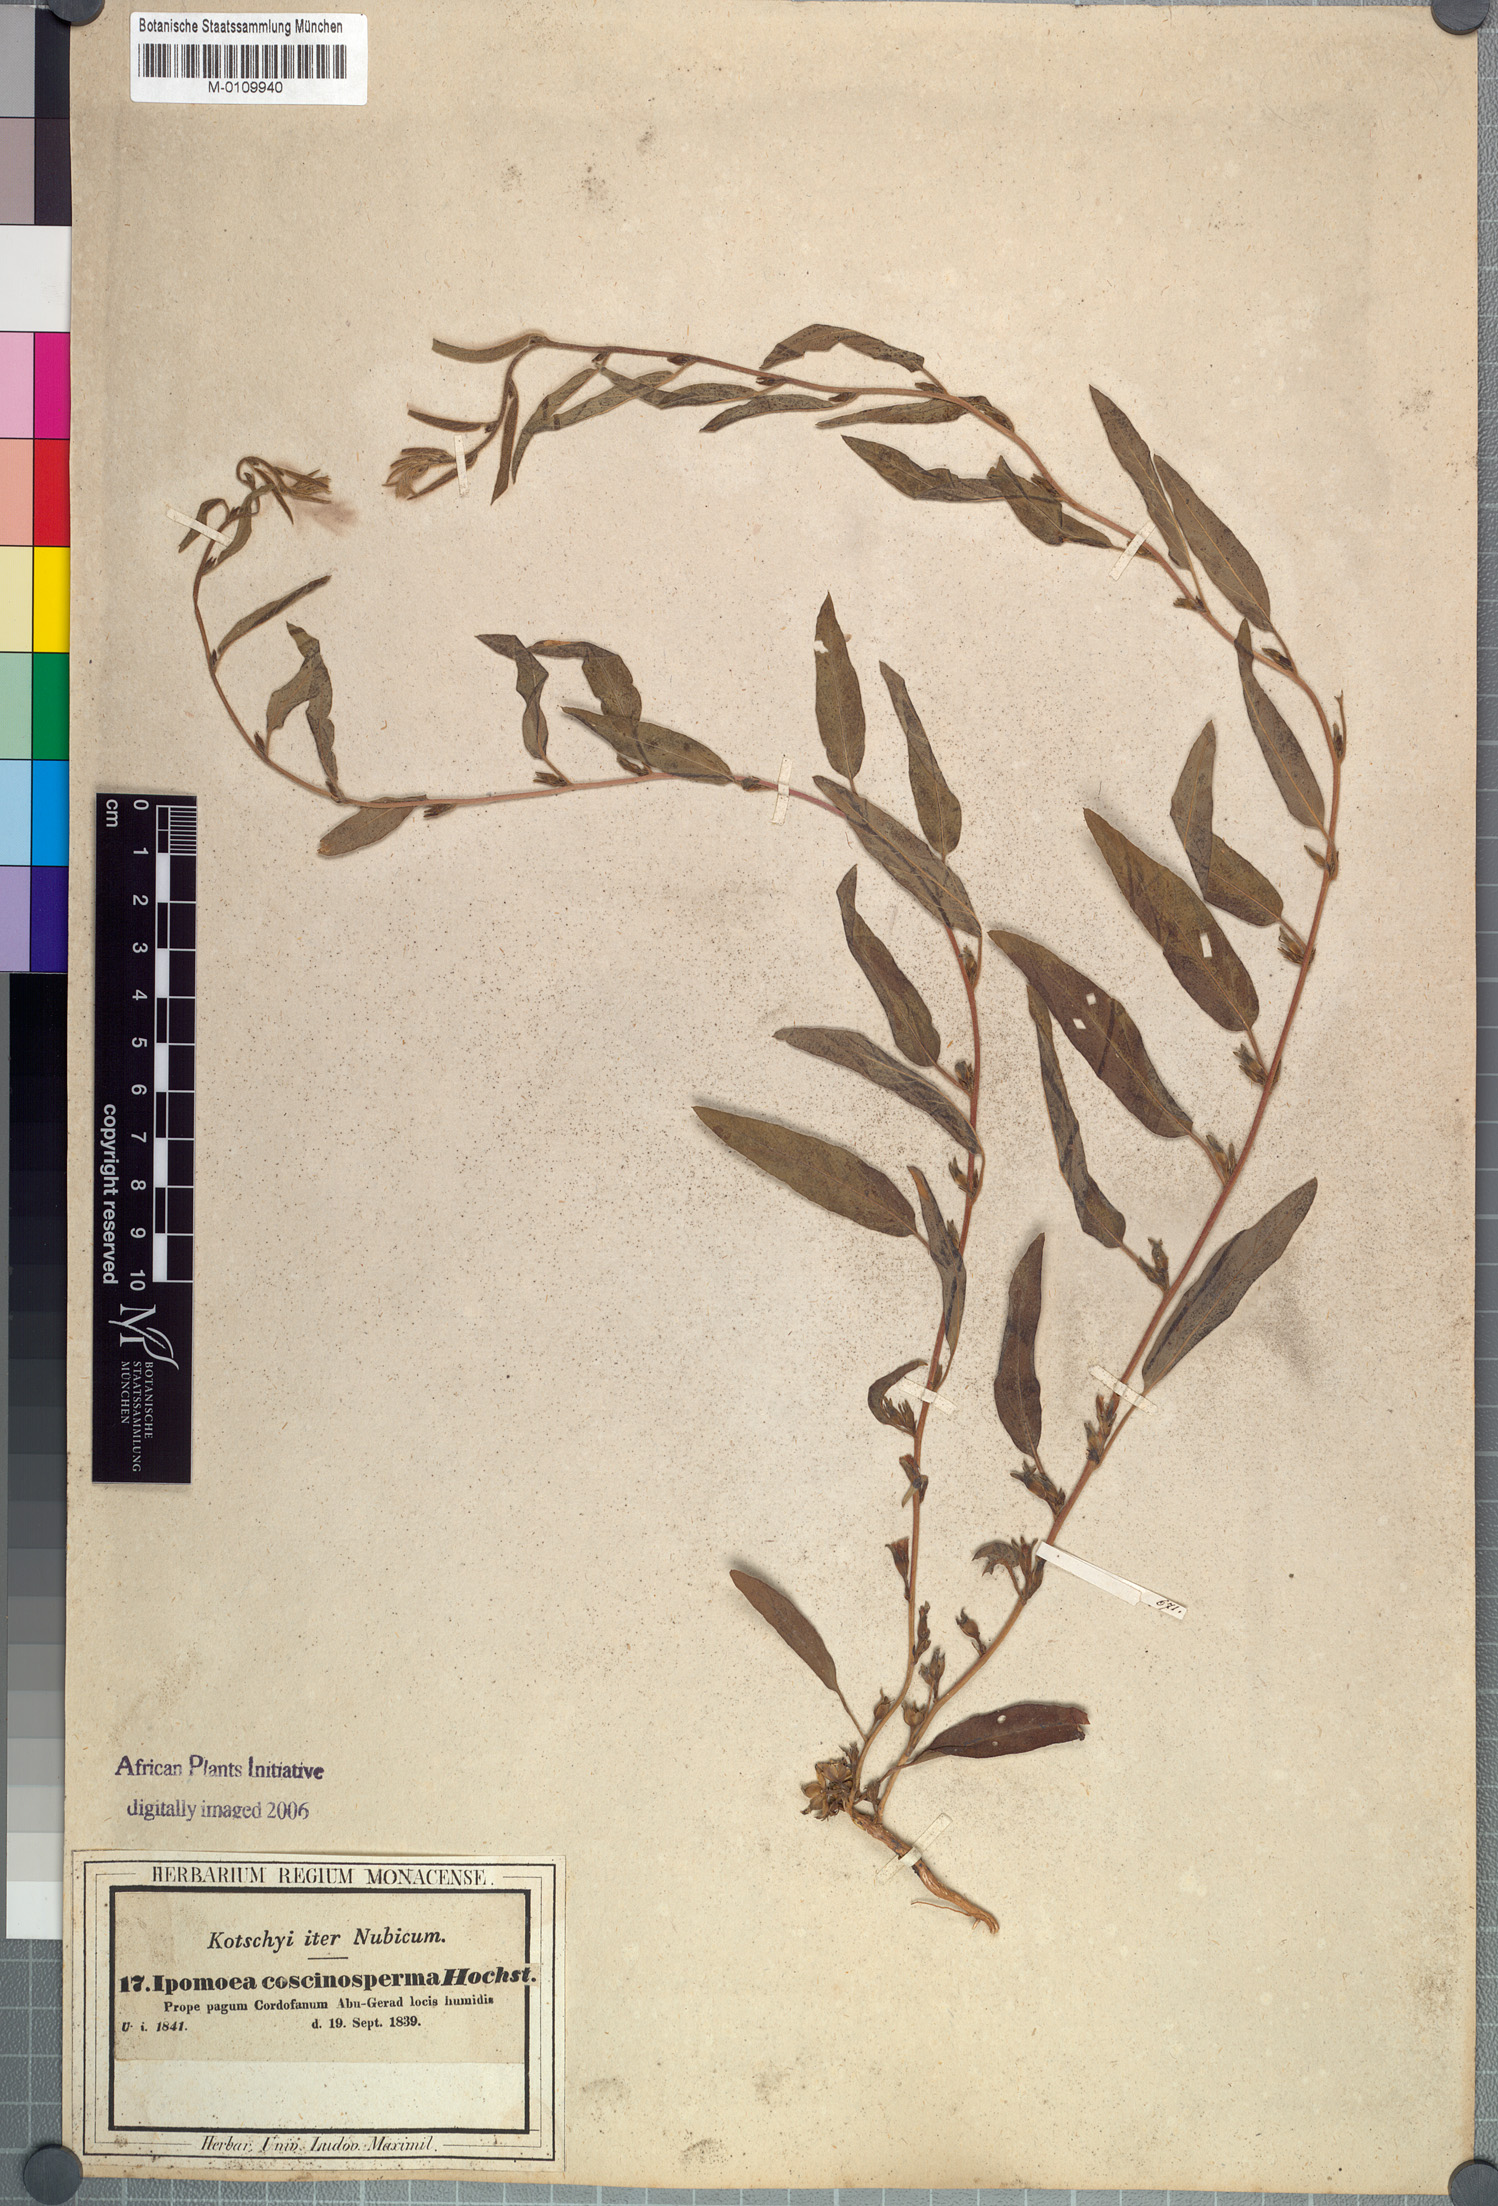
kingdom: Plantae
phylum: Tracheophyta
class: Magnoliopsida
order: Solanales
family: Convolvulaceae
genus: Ipomoea
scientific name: Ipomoea coscinosperma
